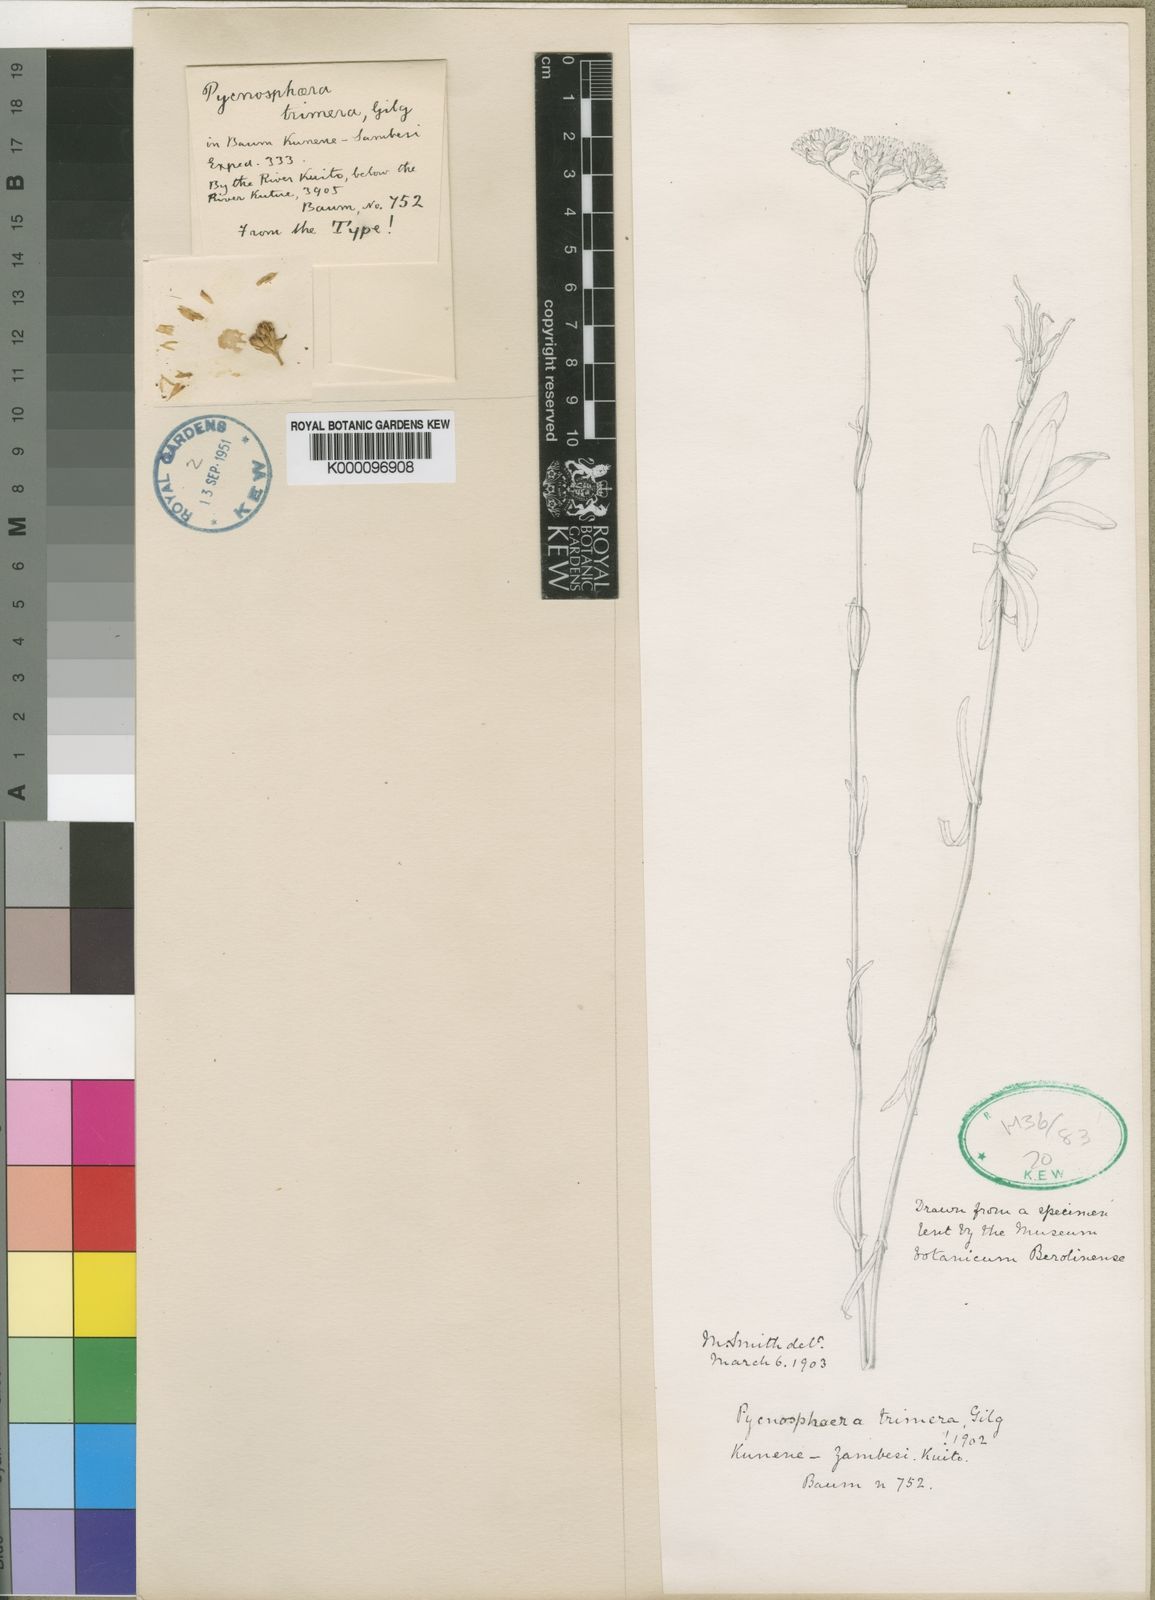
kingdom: Plantae
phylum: Tracheophyta
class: Magnoliopsida
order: Gentianales
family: Gentianaceae
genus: Pycnosphaera
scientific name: Pycnosphaera buchananii
